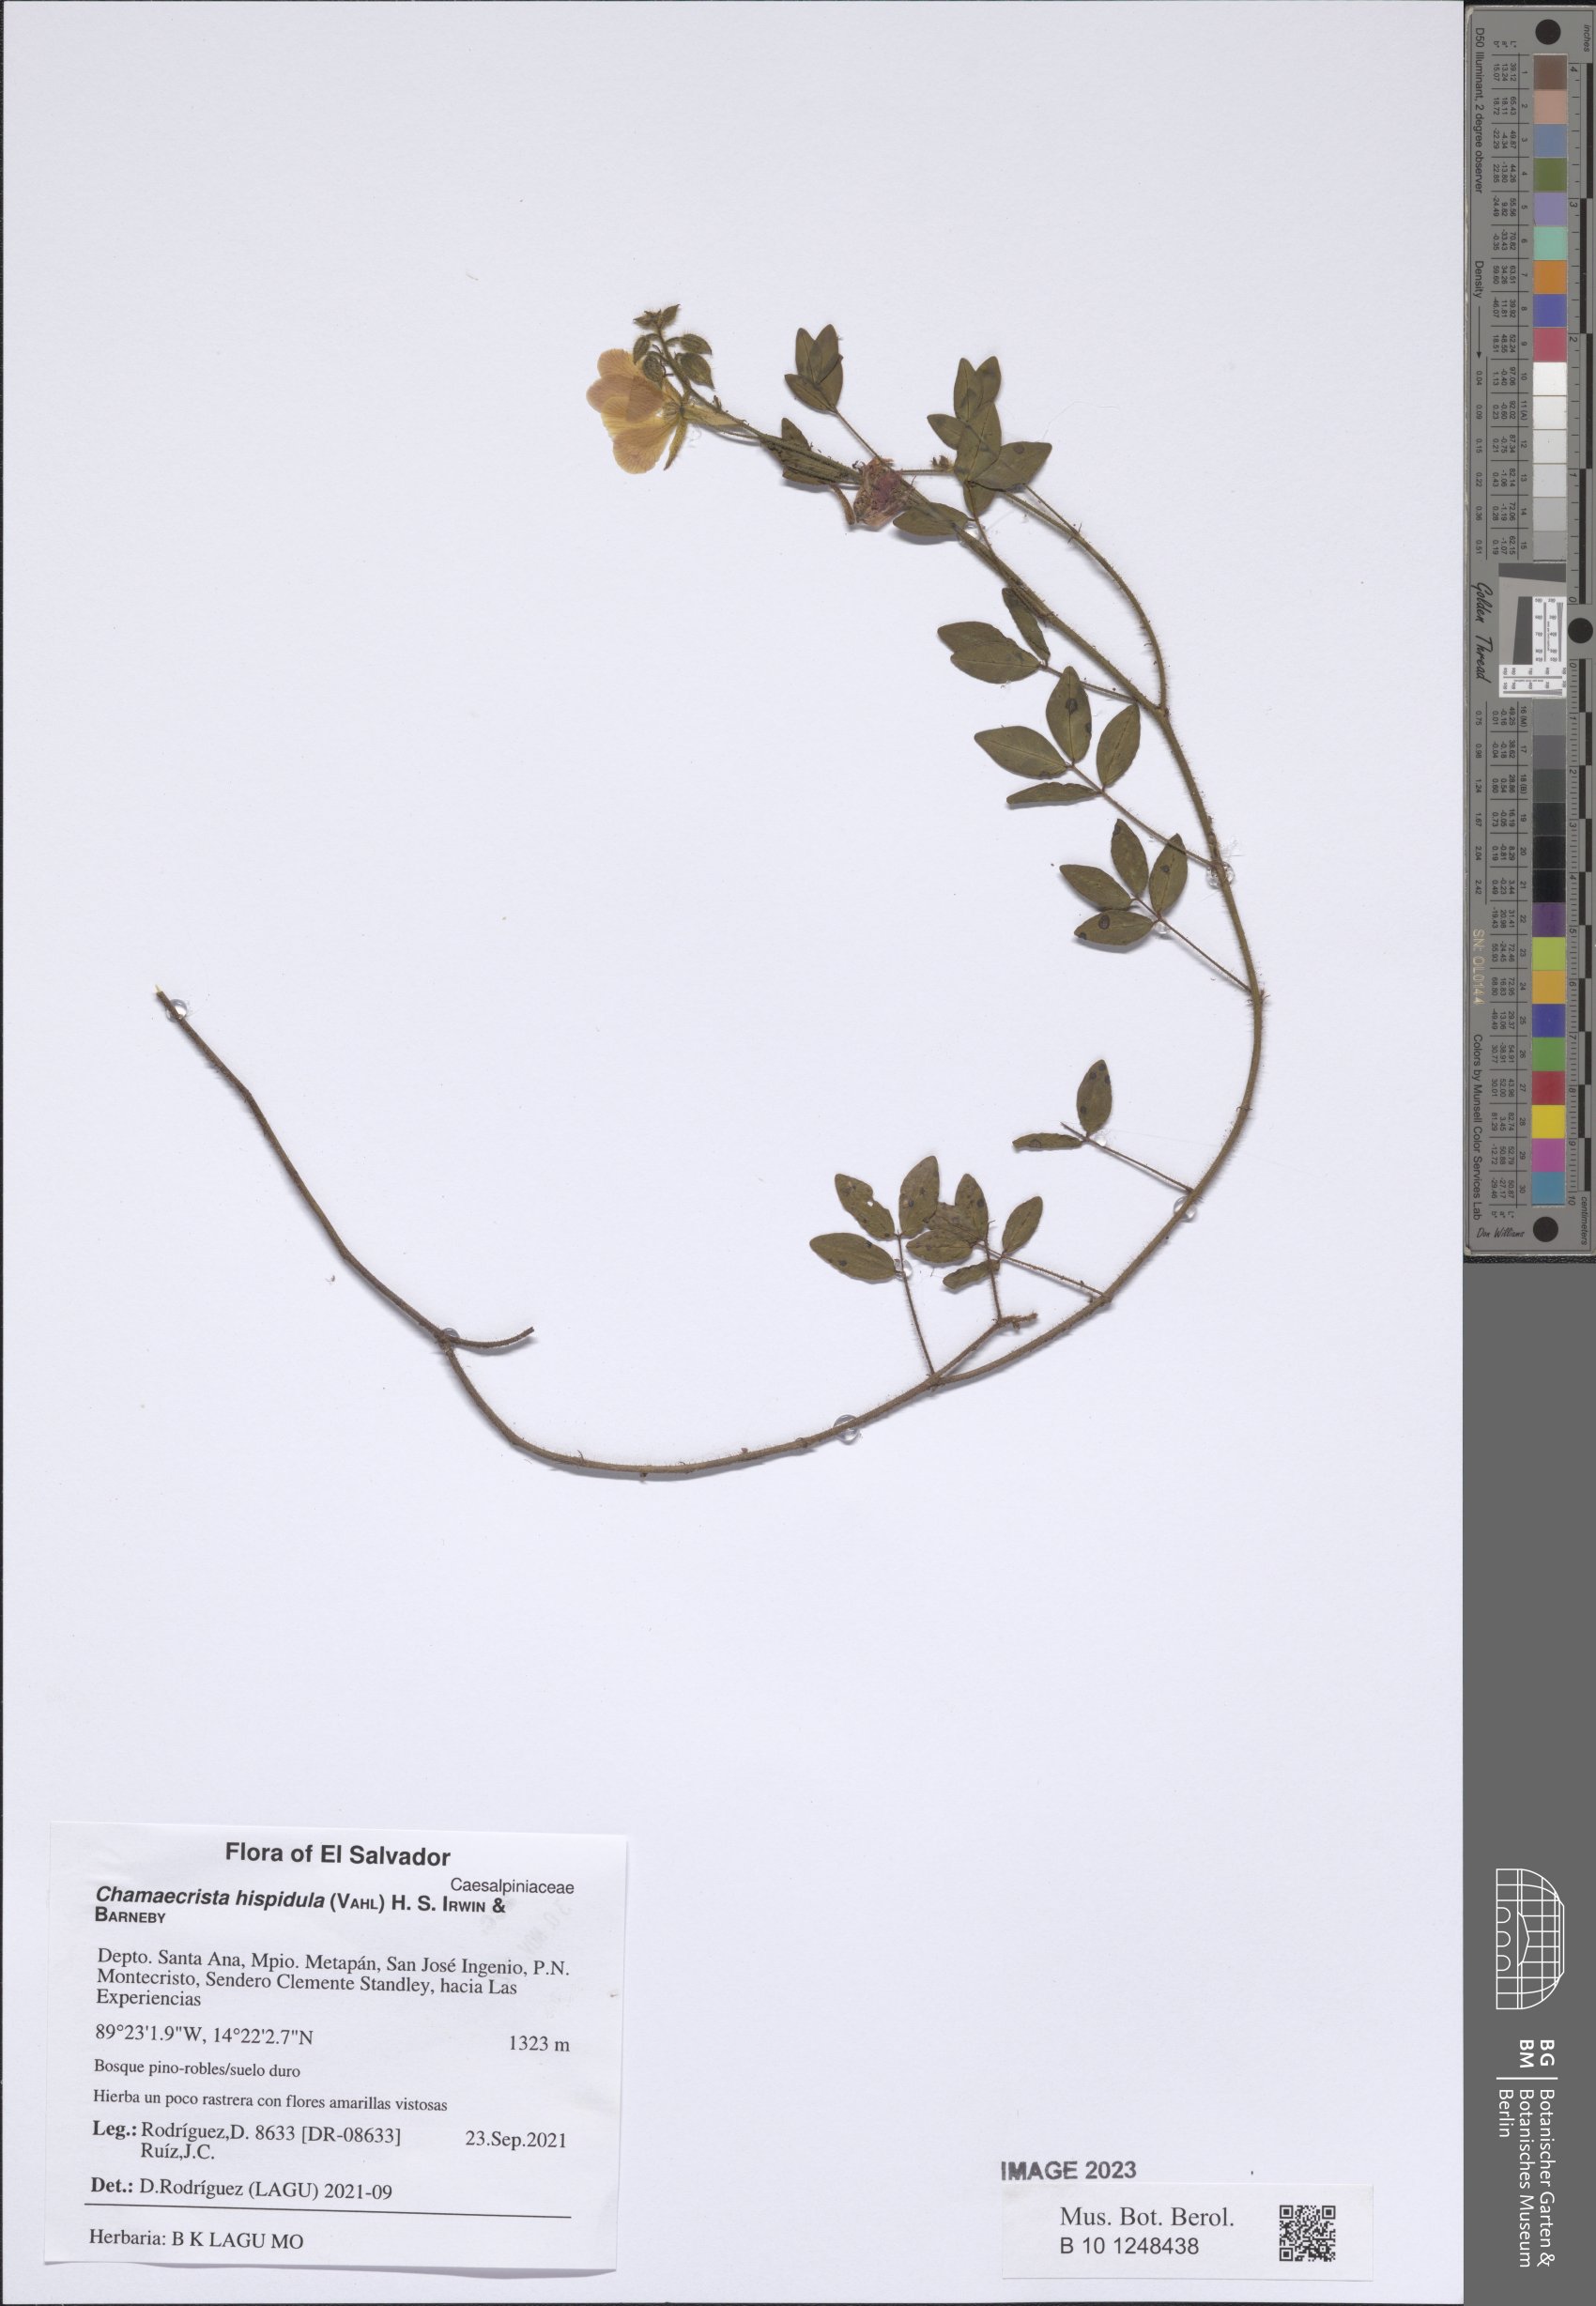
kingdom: Plantae
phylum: Tracheophyta
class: Magnoliopsida
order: Fabales
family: Fabaceae
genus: Chamaecrista
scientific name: Chamaecrista hispidula
